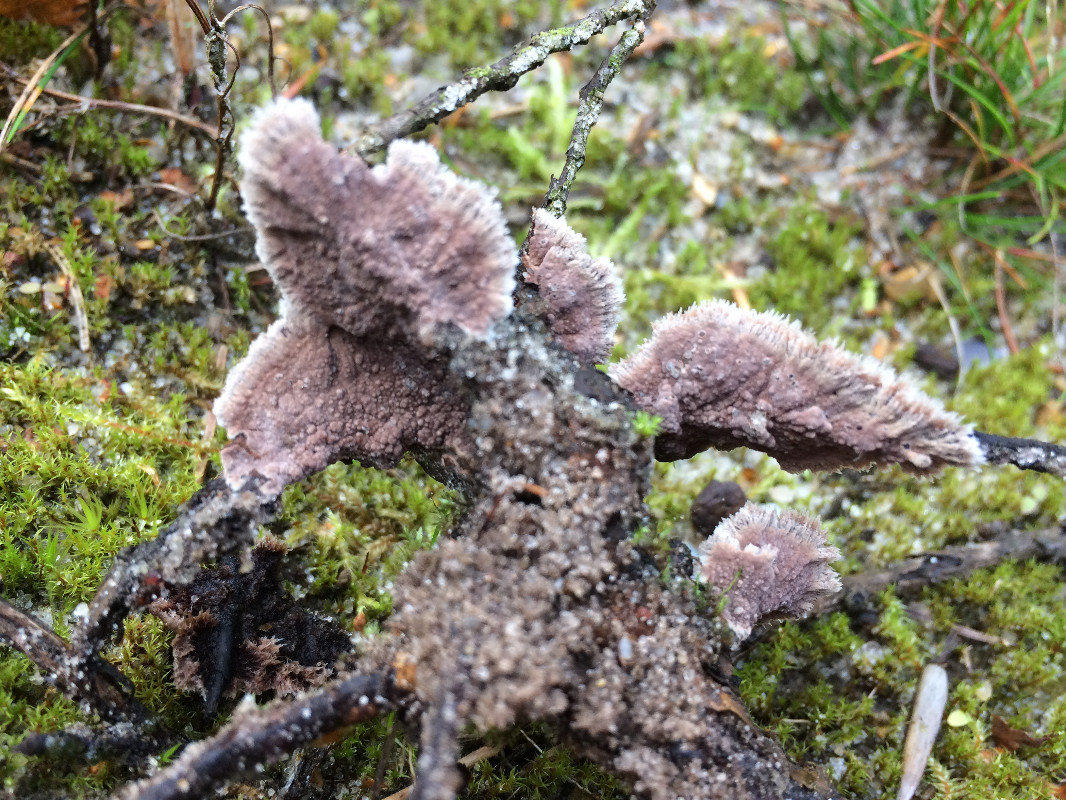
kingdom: Fungi
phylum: Basidiomycota
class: Agaricomycetes
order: Thelephorales
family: Thelephoraceae
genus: Thelephora
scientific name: Thelephora terrestris
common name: fliget frynsesvamp
